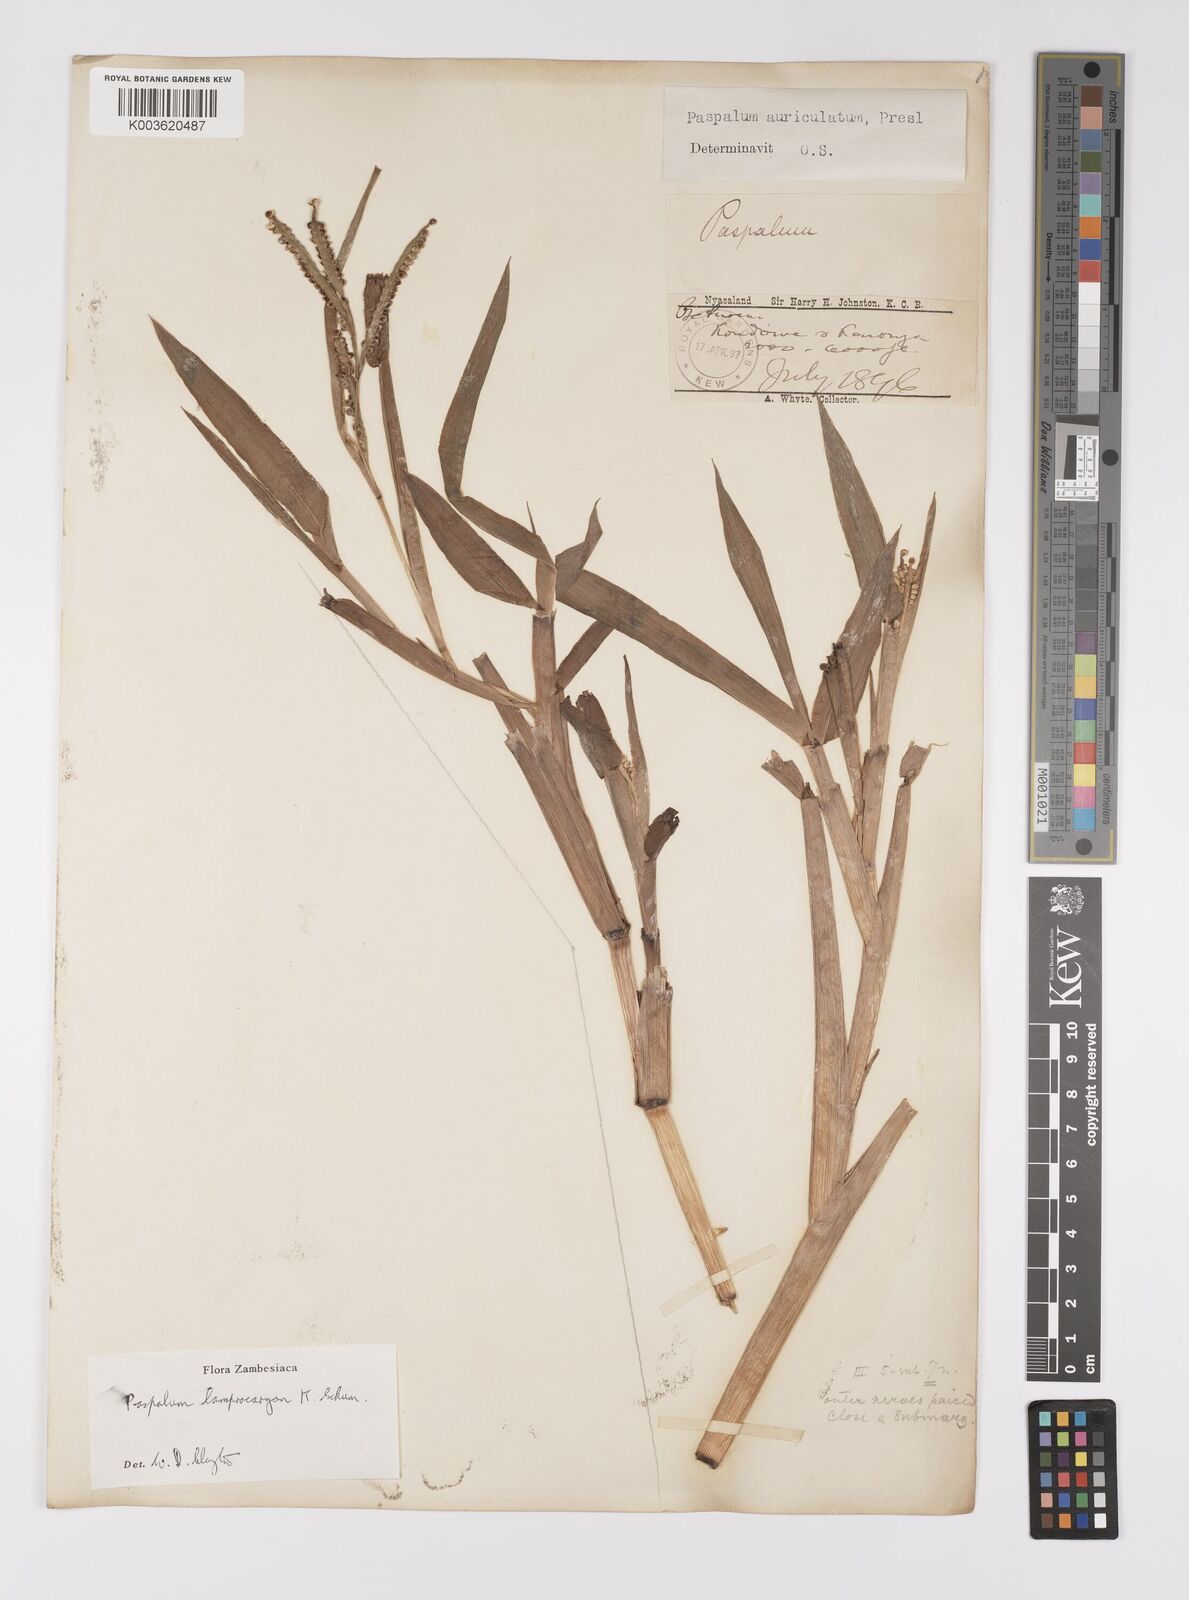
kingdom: Plantae
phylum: Tracheophyta
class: Liliopsida
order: Poales
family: Poaceae
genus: Paspalum
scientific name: Paspalum lamprocaryon
